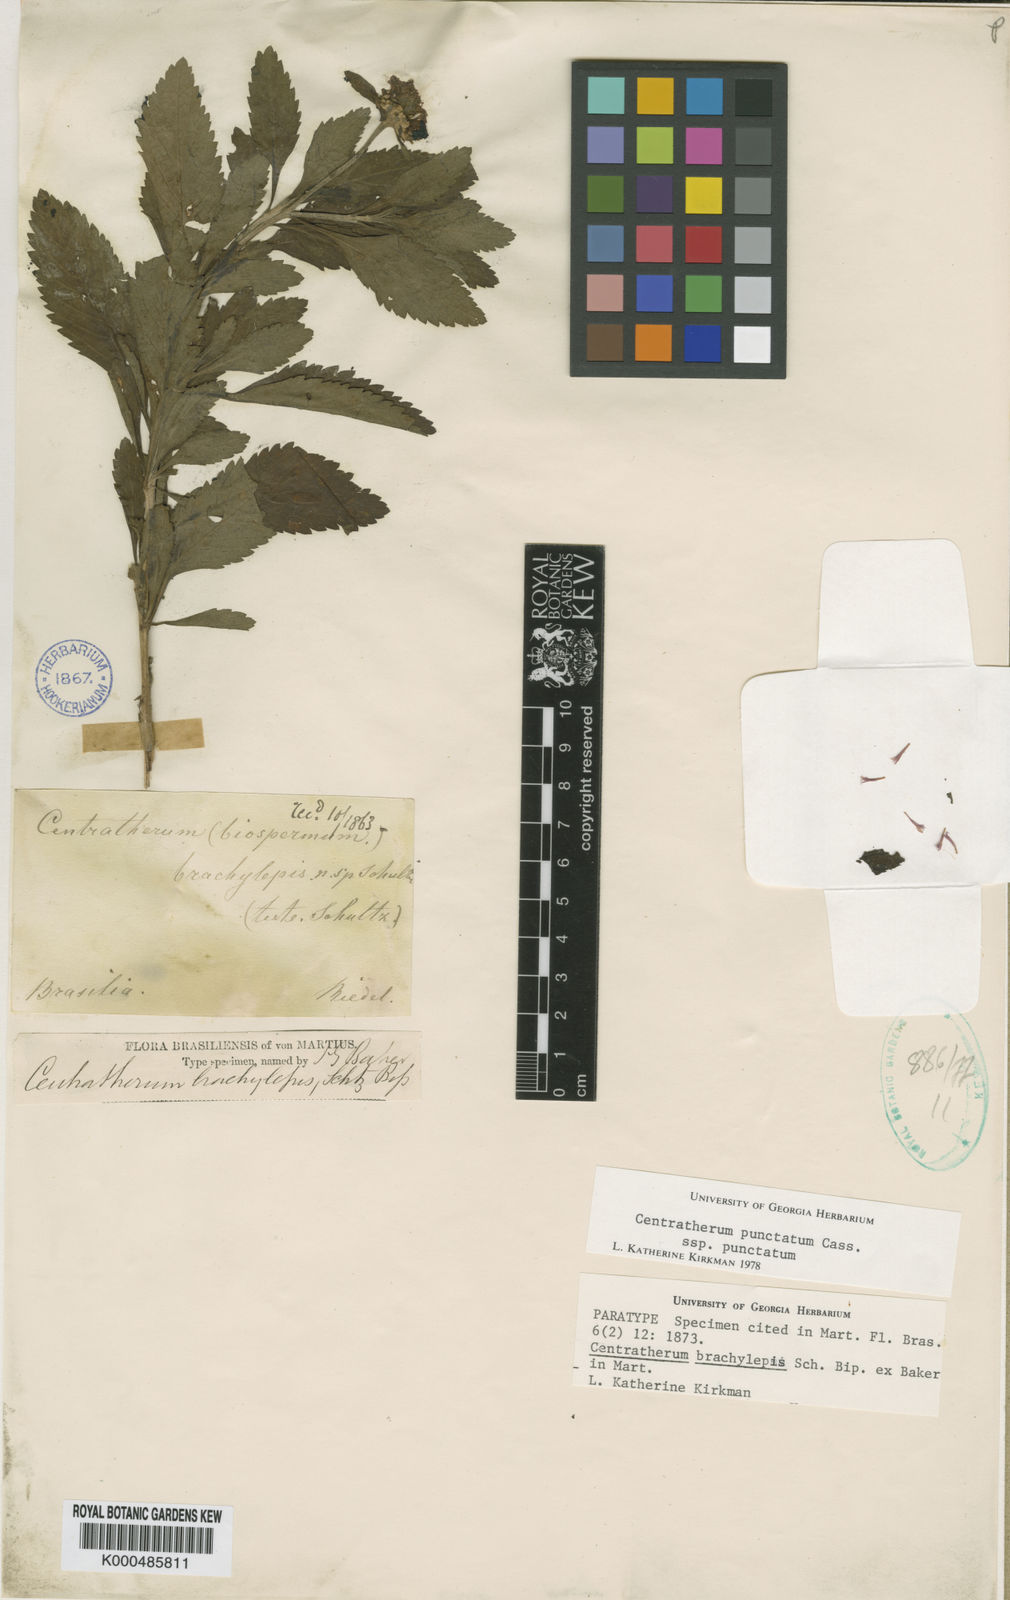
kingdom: Plantae
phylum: Tracheophyta
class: Magnoliopsida
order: Asterales
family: Asteraceae
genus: Centratherum
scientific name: Centratherum punctatum
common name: Larkdaisy
